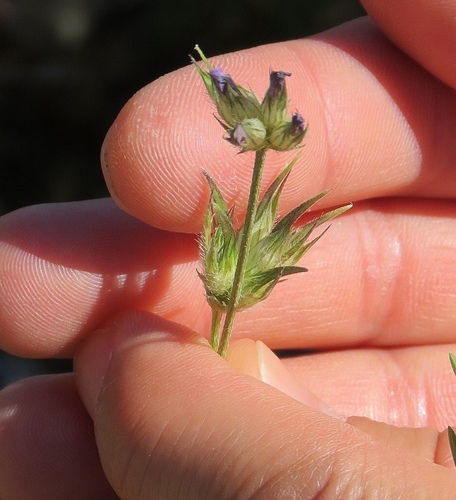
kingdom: Plantae
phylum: Tracheophyta
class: Magnoliopsida
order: Fabales
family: Fabaceae
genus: Bituminaria
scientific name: Bituminaria bituminosa
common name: Arabian pea
